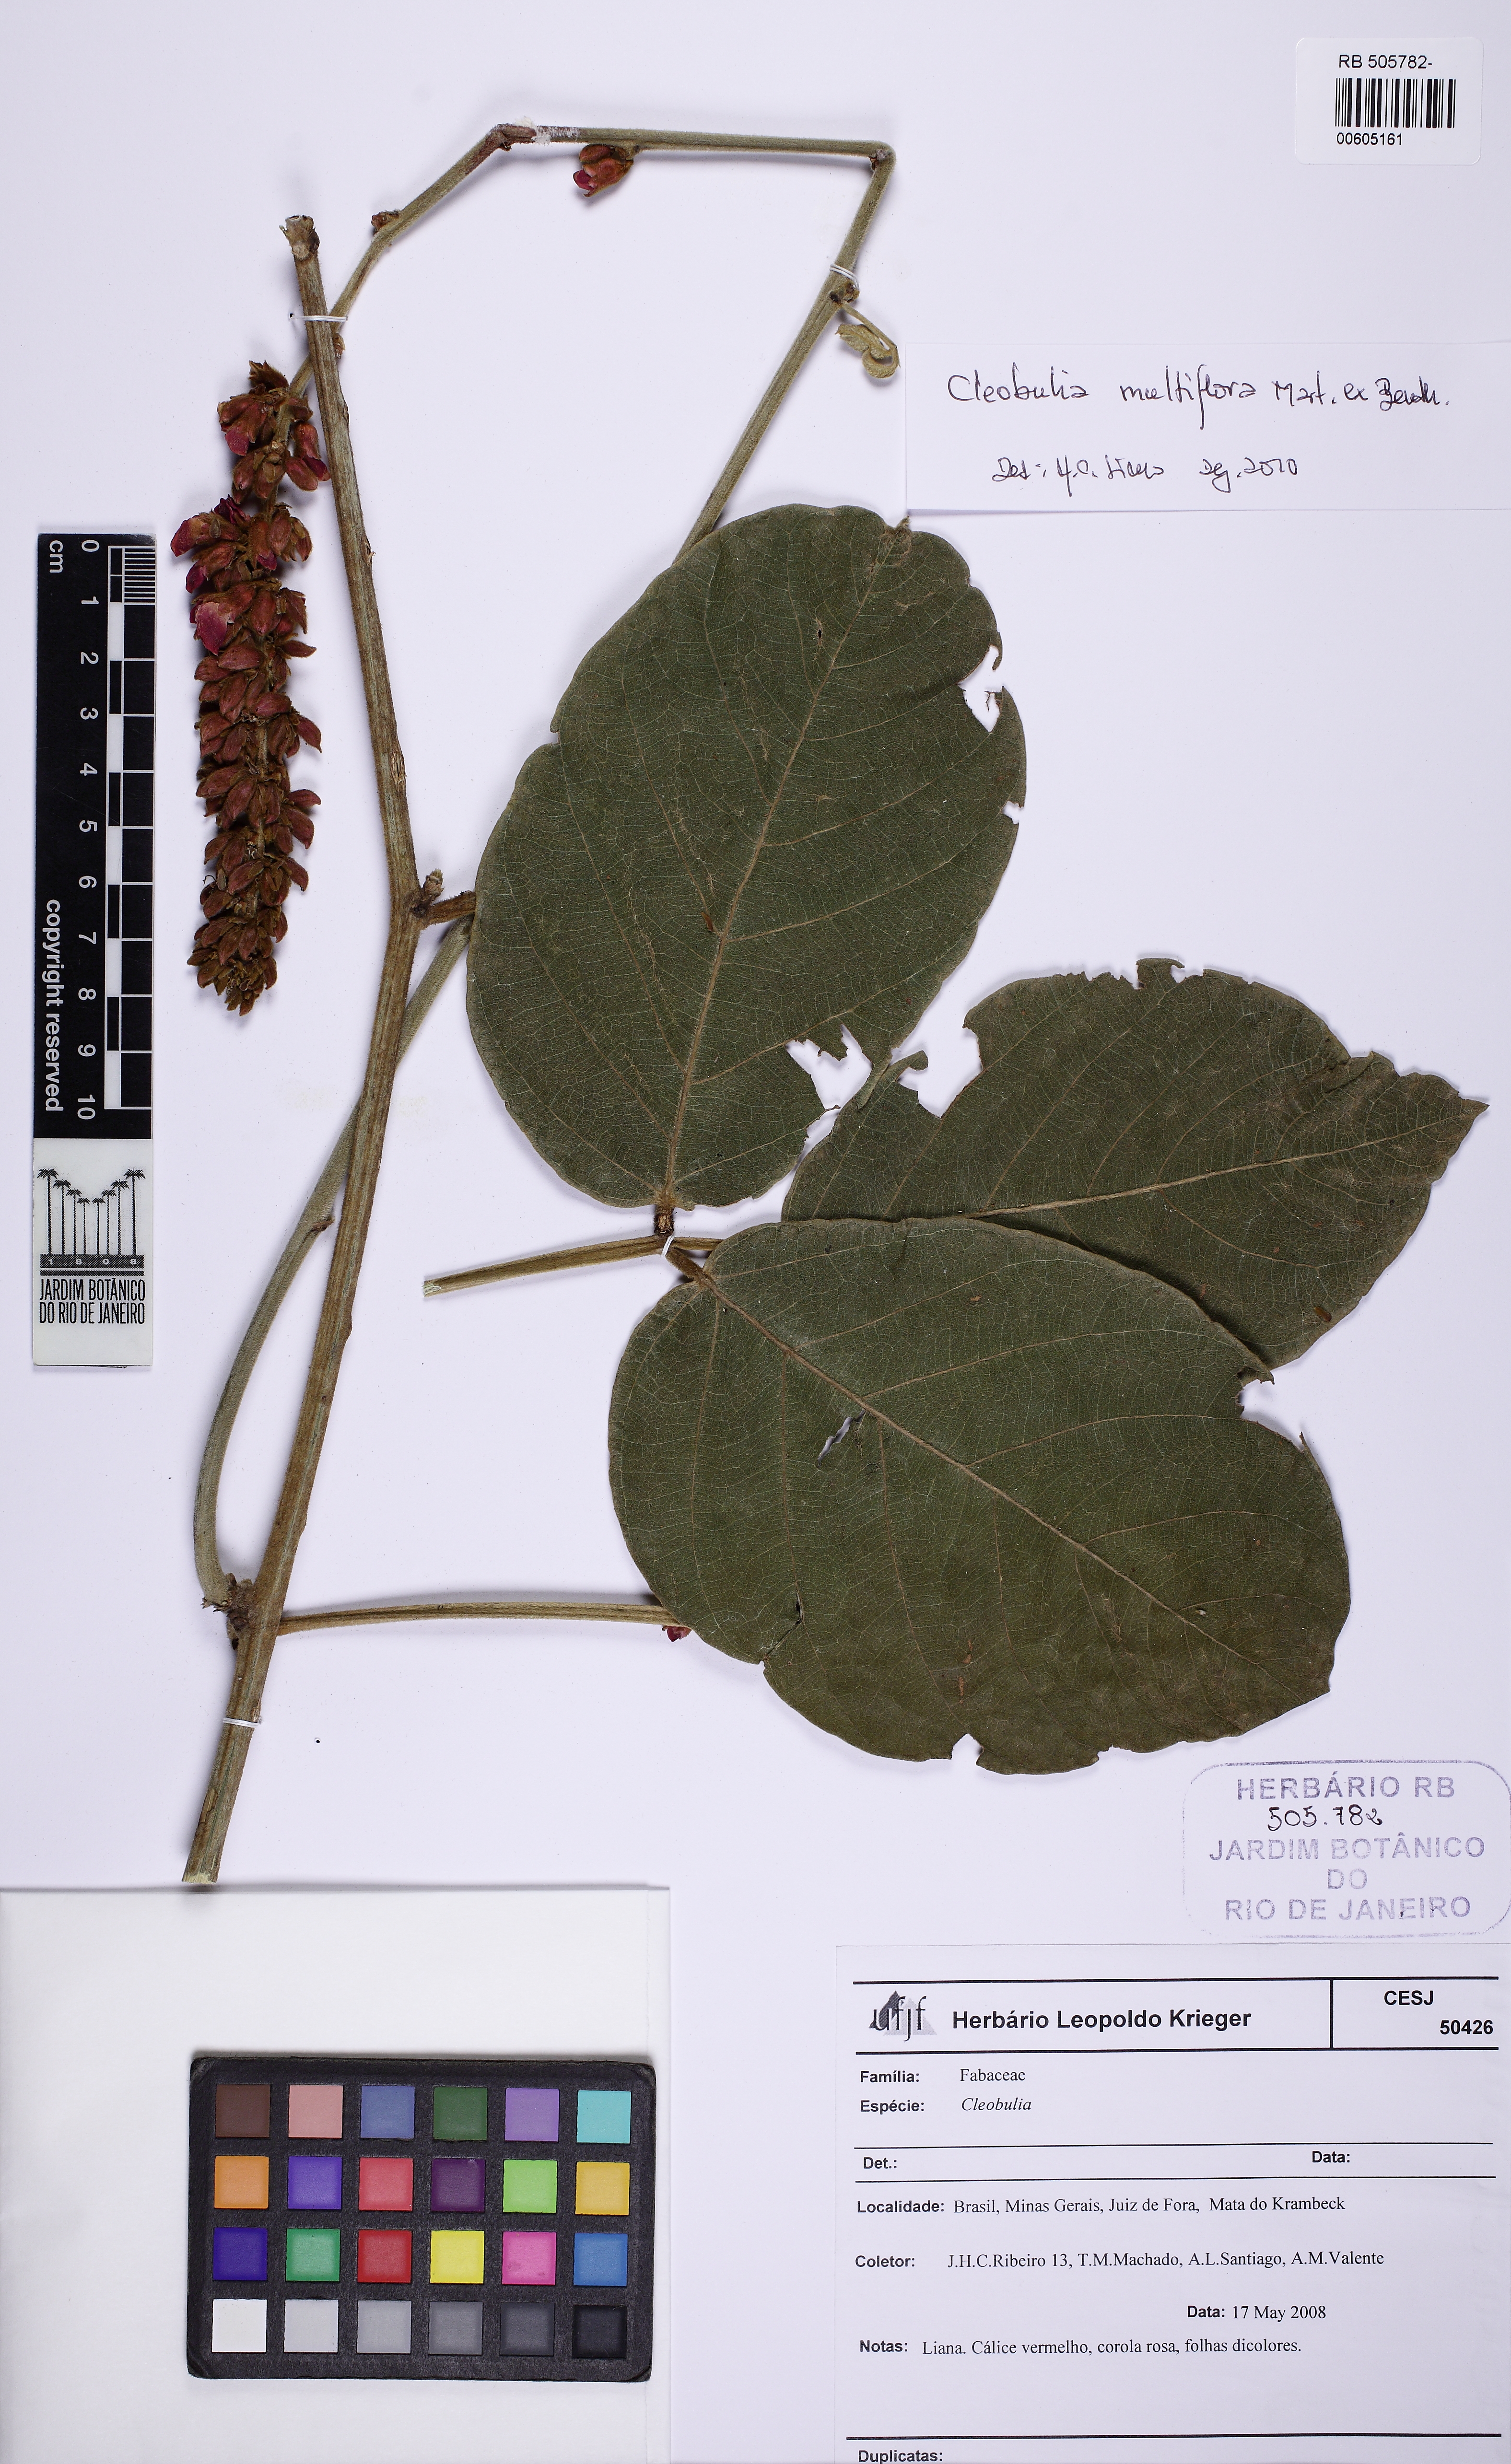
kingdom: Plantae
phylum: Tracheophyta
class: Magnoliopsida
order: Fabales
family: Fabaceae
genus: Cleobulia
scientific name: Cleobulia coccinea
